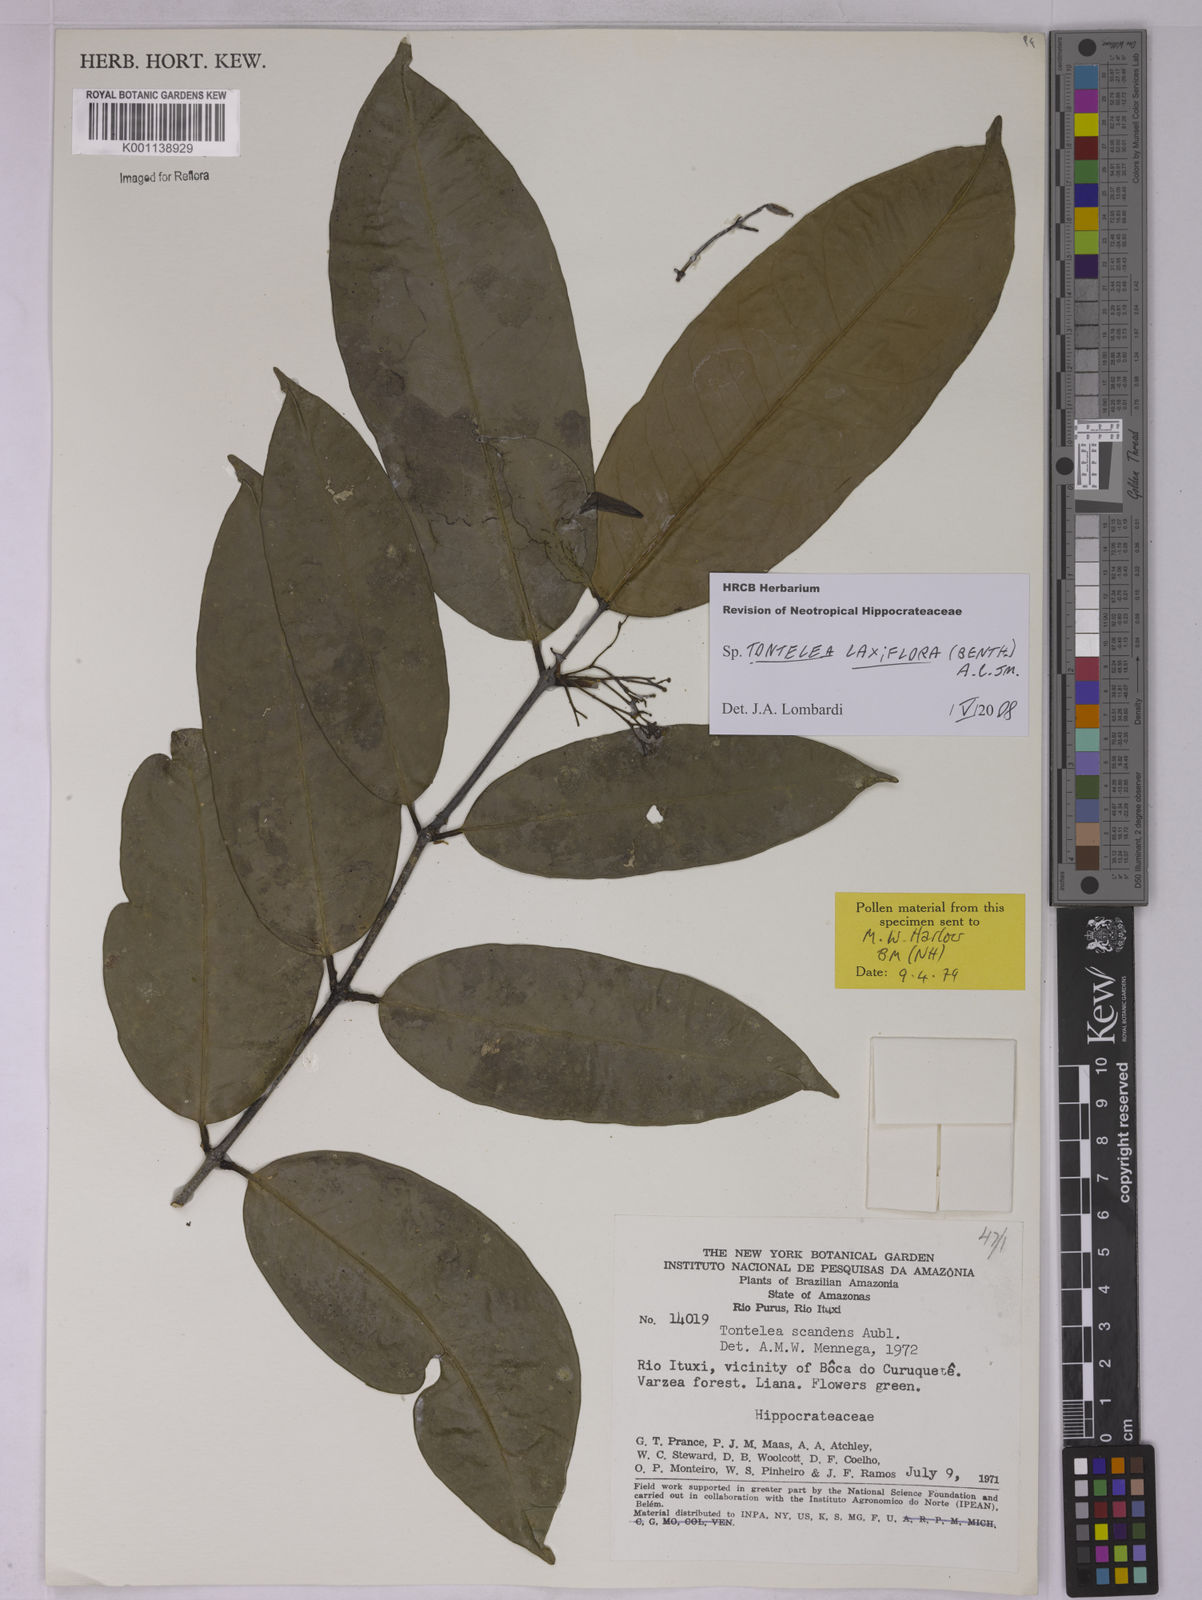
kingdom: Plantae
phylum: Tracheophyta
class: Magnoliopsida
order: Celastrales
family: Celastraceae
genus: Tontelea
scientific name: Tontelea laxiflora
